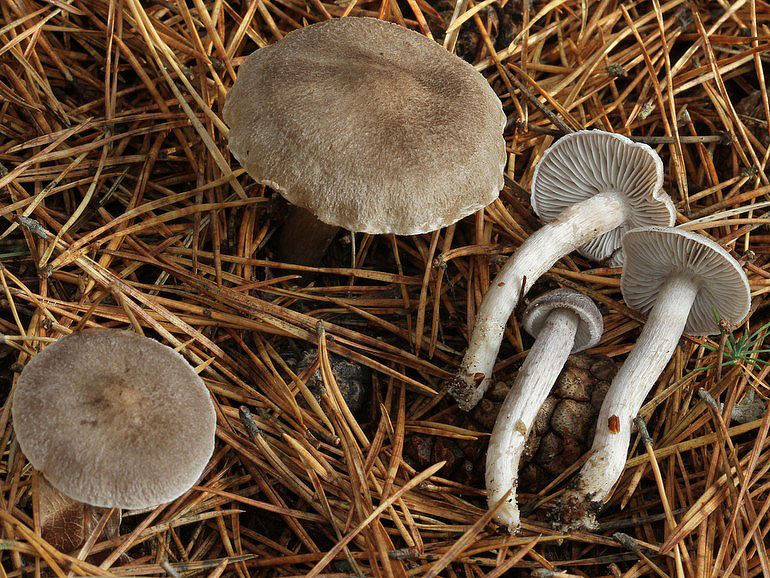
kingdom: Fungi
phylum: Basidiomycota
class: Agaricomycetes
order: Agaricales
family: Tricholomataceae
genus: Tricholoma
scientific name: Tricholoma terreum
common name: jordfarvet ridderhat
